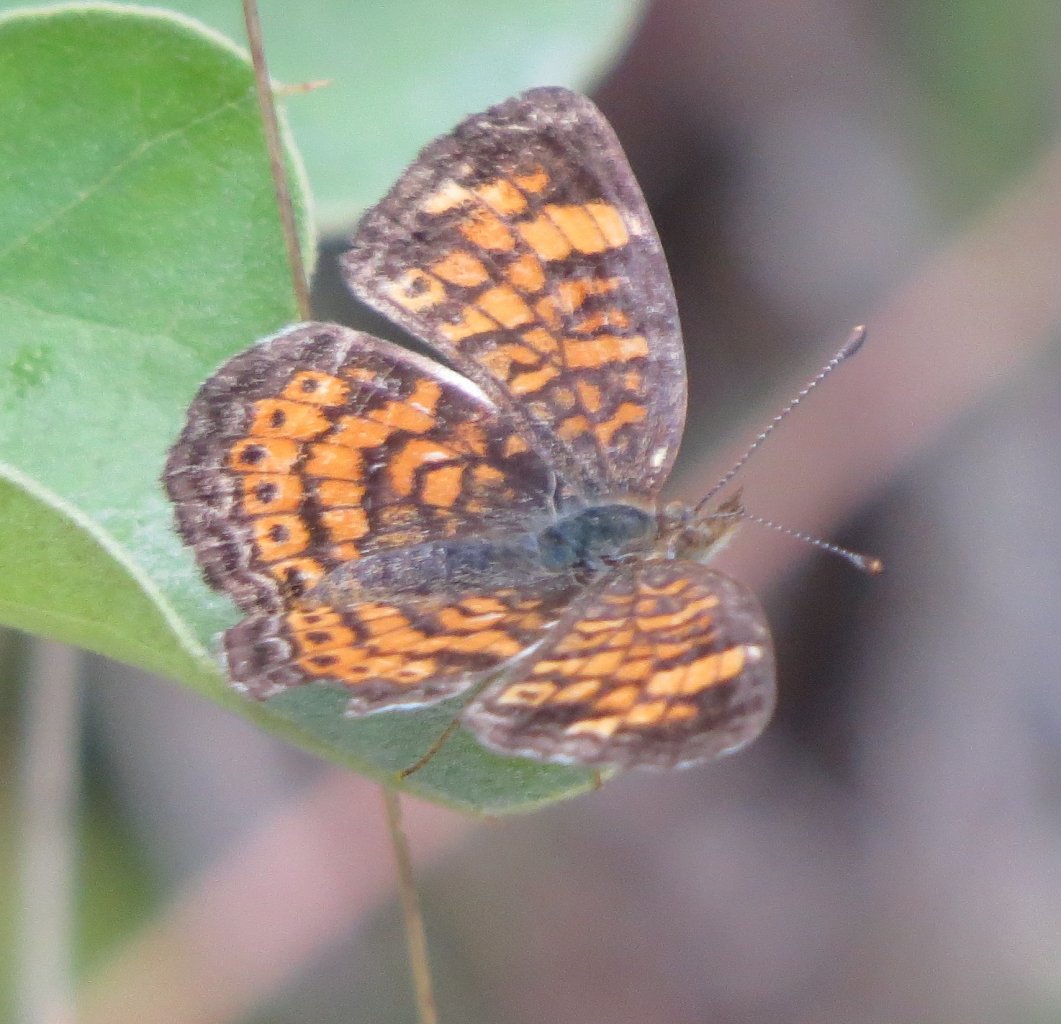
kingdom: Animalia
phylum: Arthropoda
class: Insecta
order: Lepidoptera
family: Nymphalidae
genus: Phyciodes
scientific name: Phyciodes tharos
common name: Pearl Crescent
